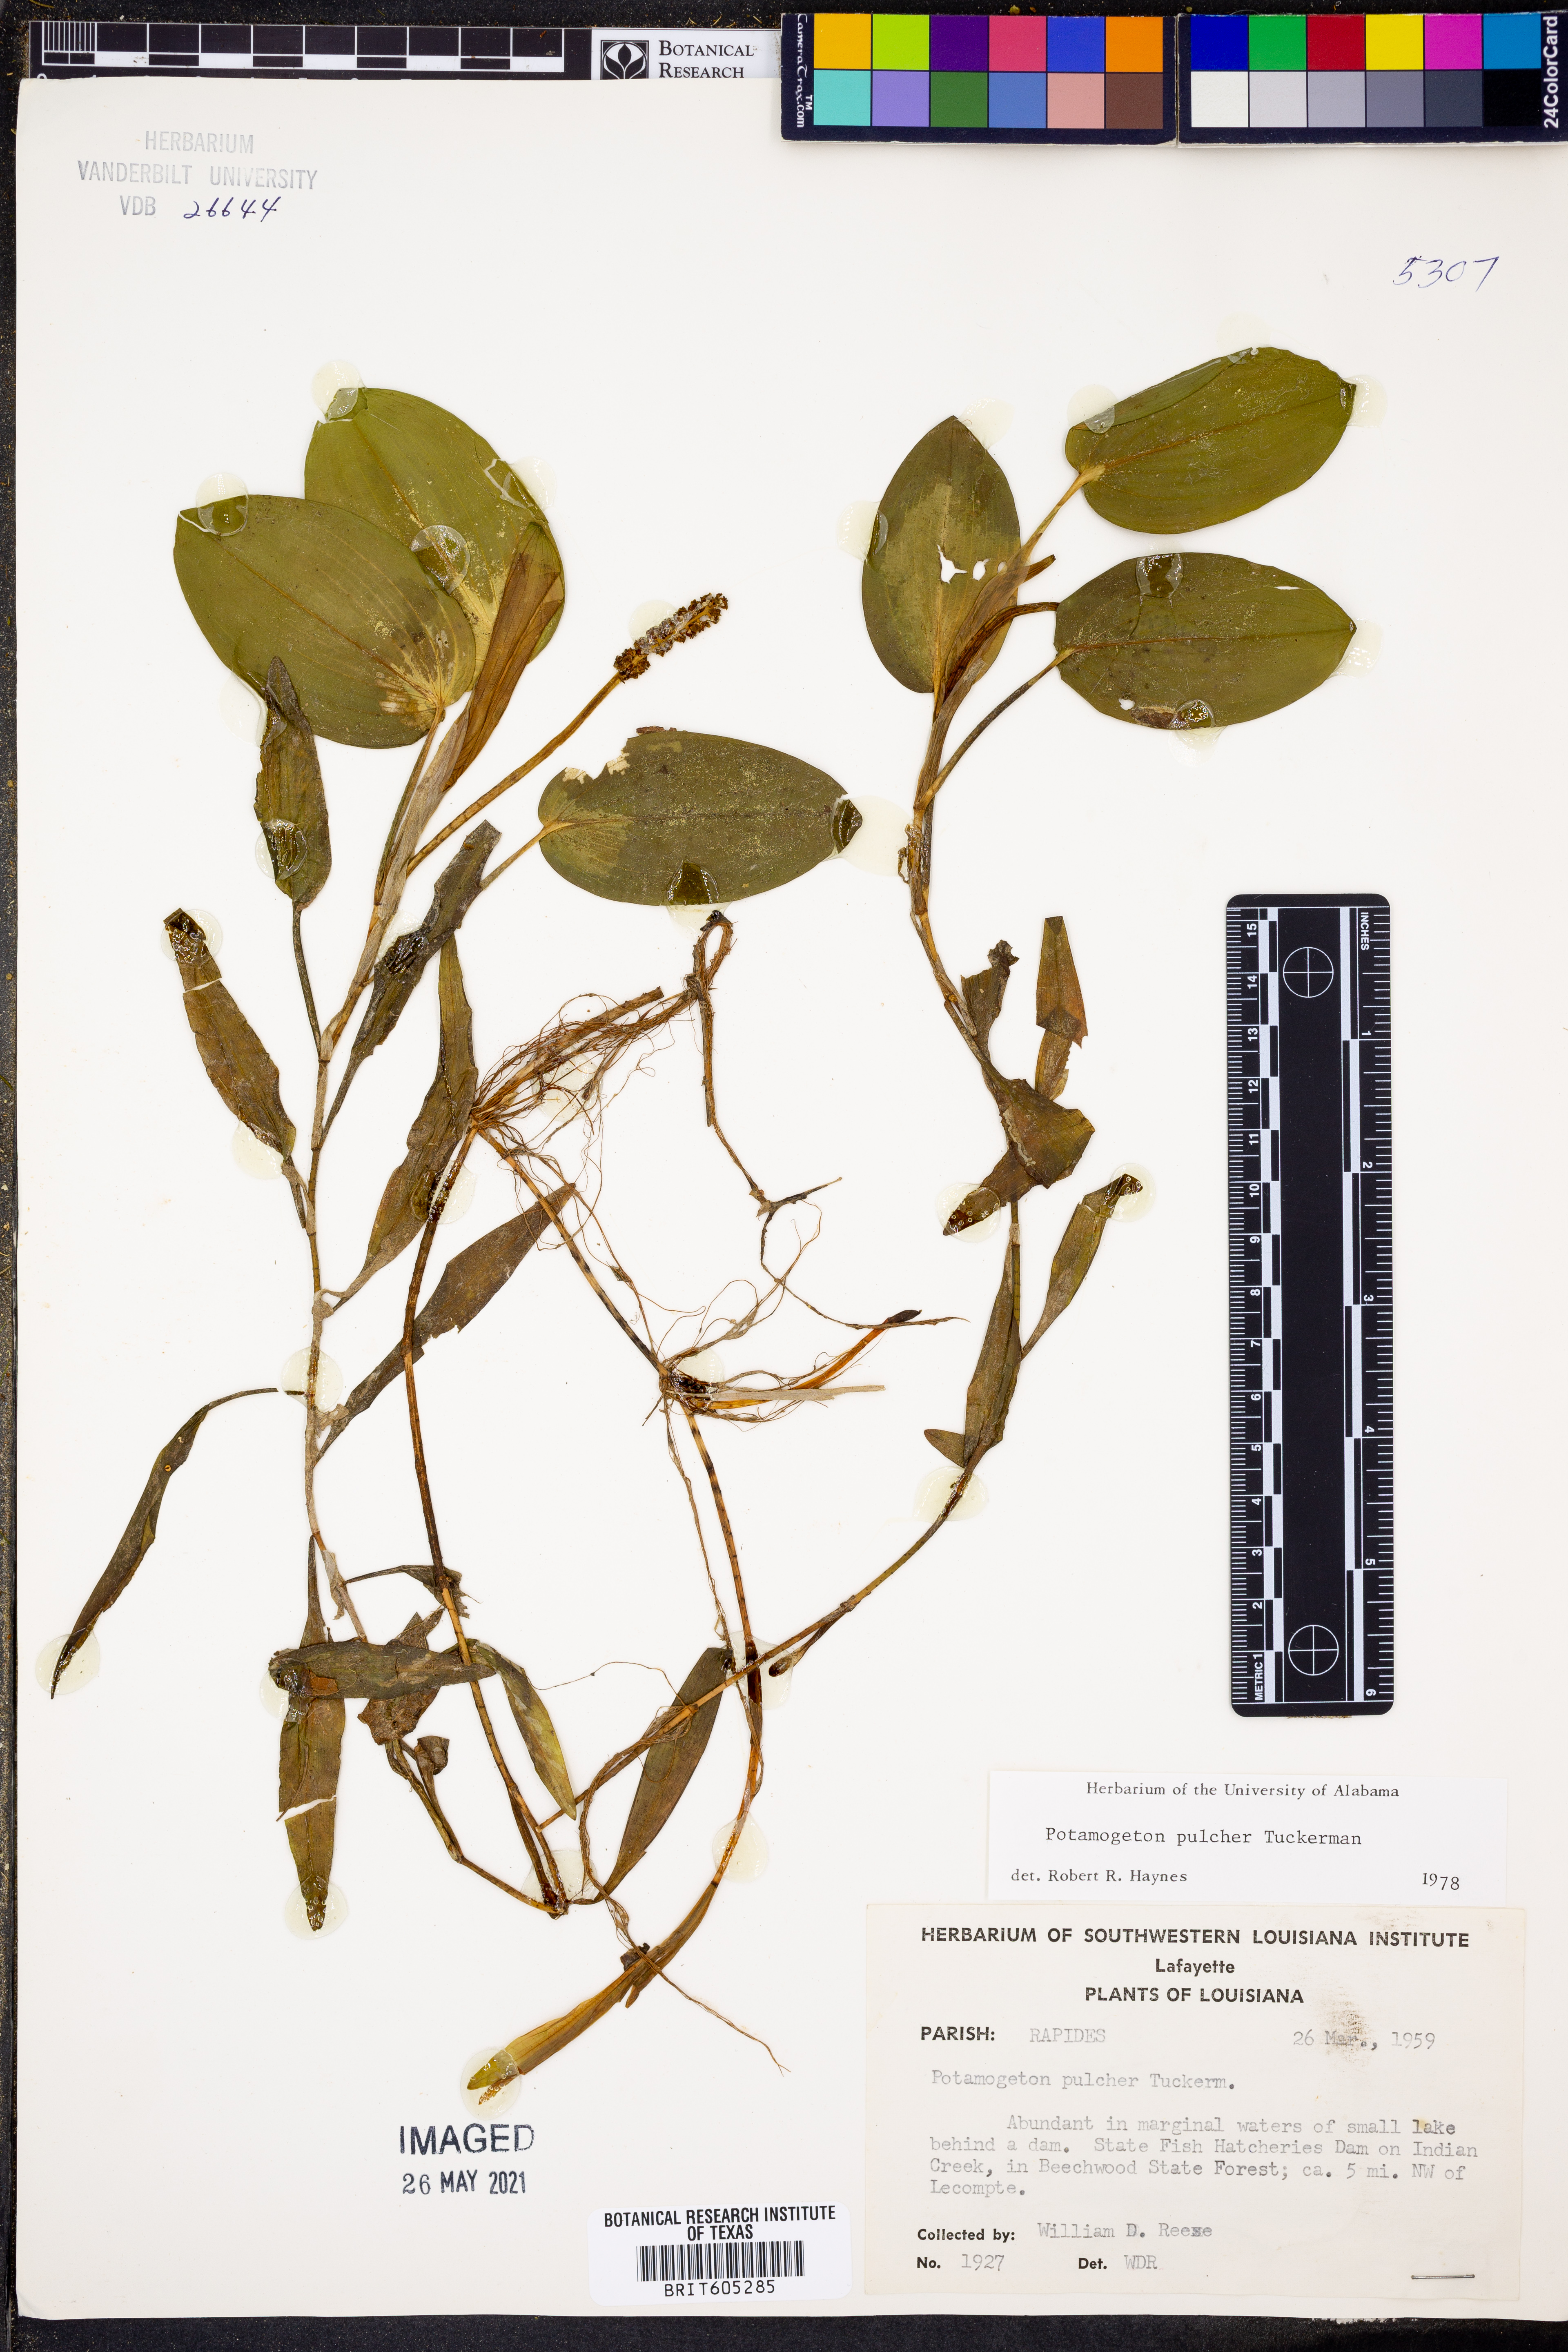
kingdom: Plantae
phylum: Tracheophyta
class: Liliopsida
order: Alismatales
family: Potamogetonaceae
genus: Potamogeton
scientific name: Potamogeton pulcher
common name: Heart-leaved pondweed
